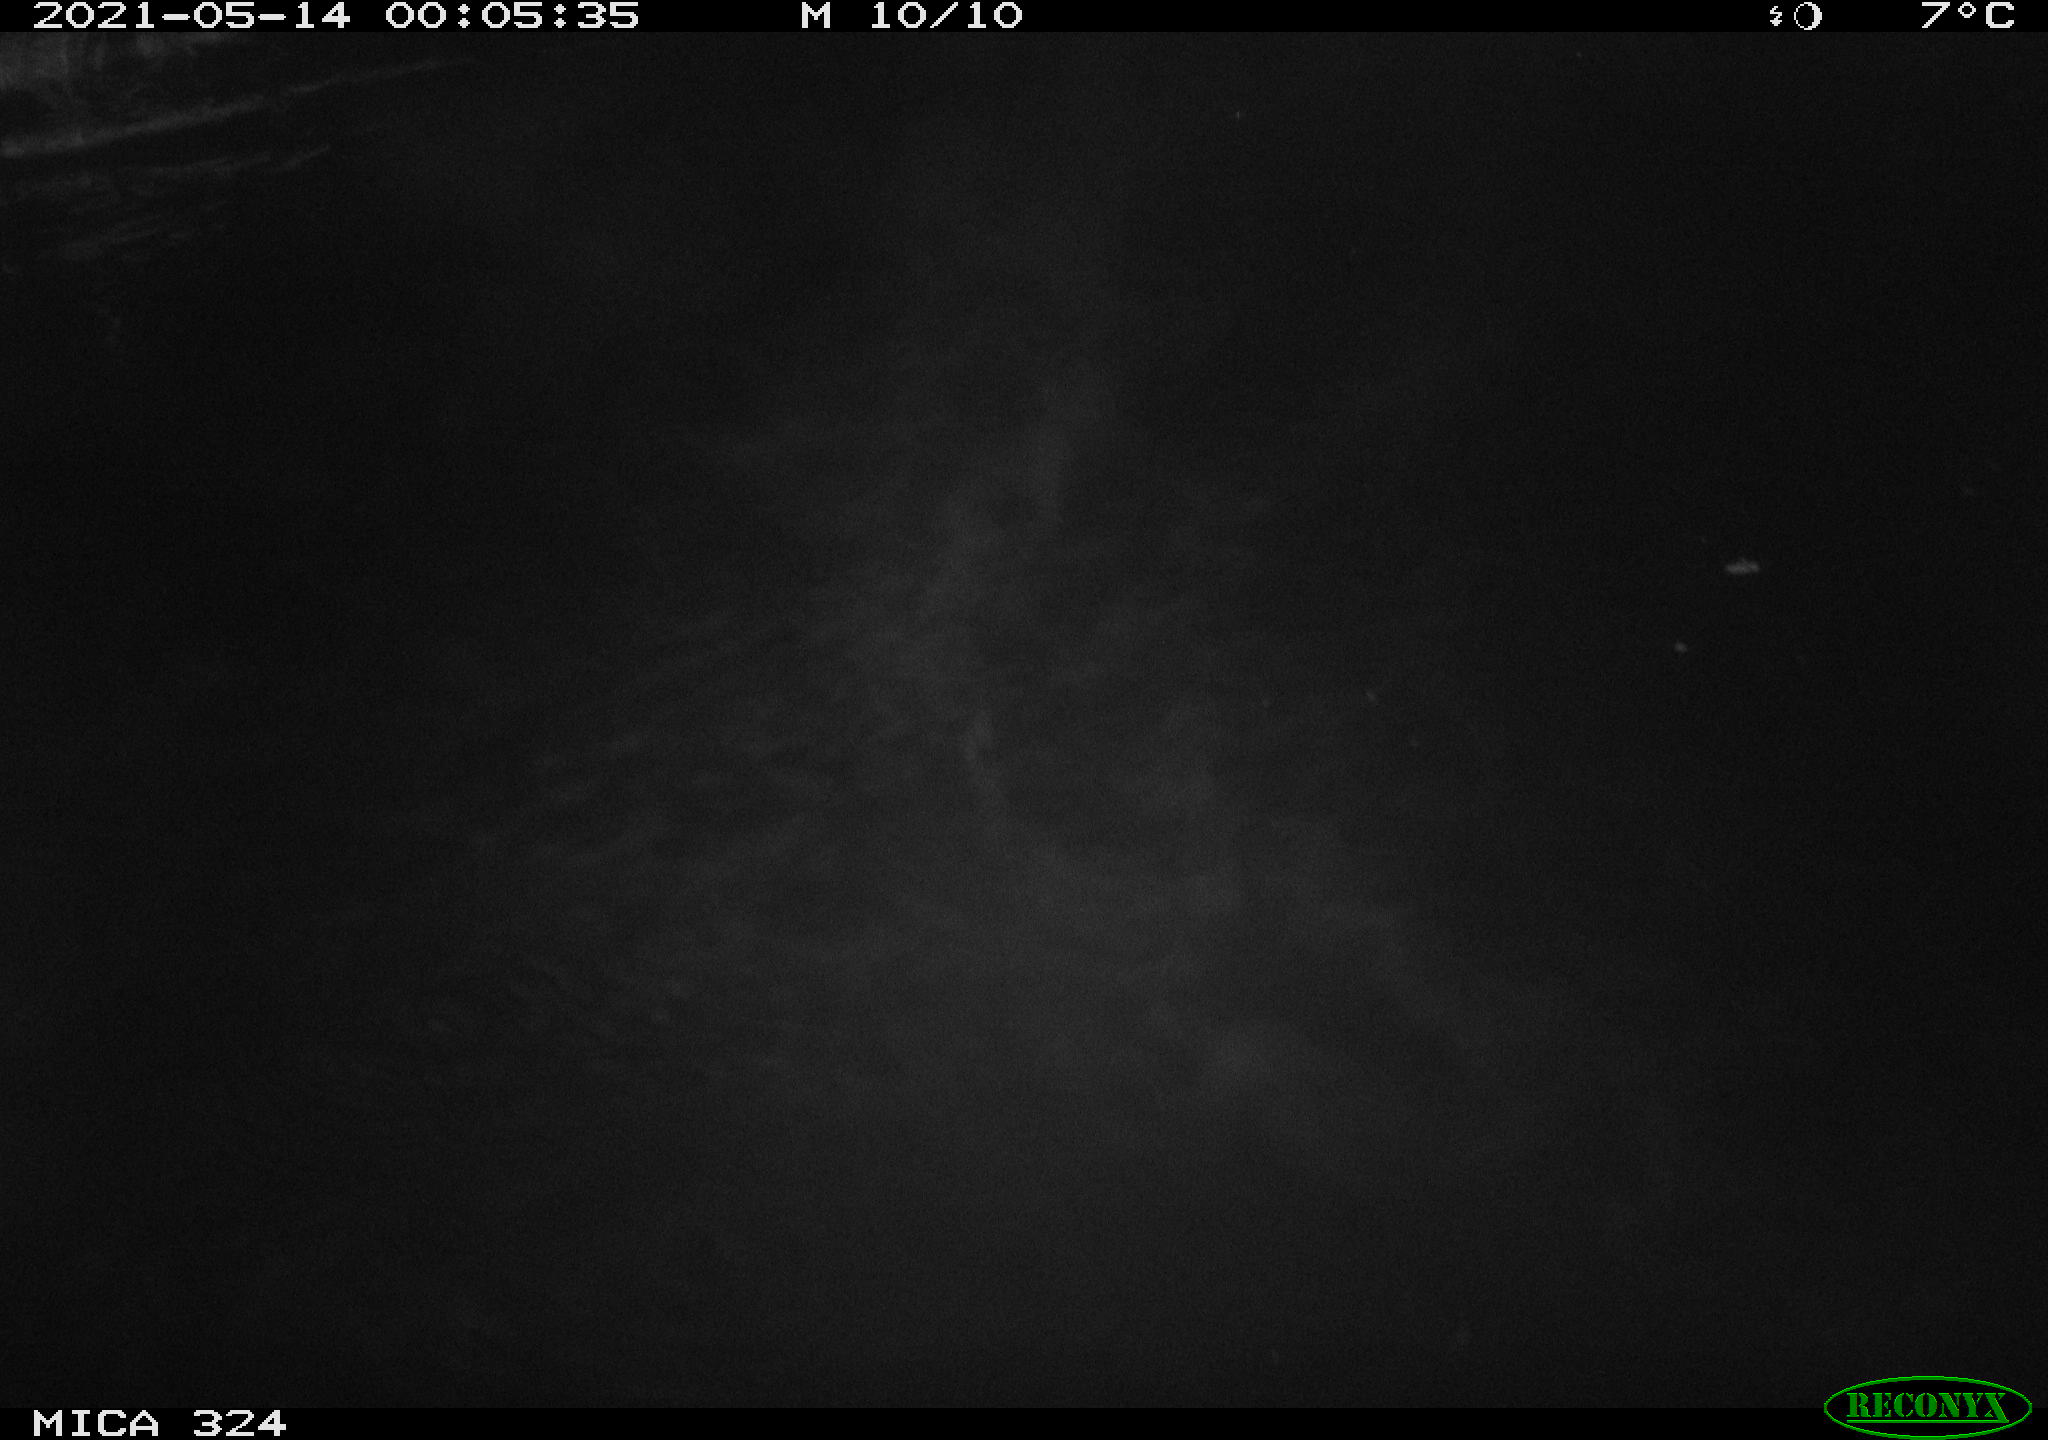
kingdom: Animalia
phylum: Chordata
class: Aves
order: Anseriformes
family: Anatidae
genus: Anas
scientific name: Anas platyrhynchos
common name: Mallard
